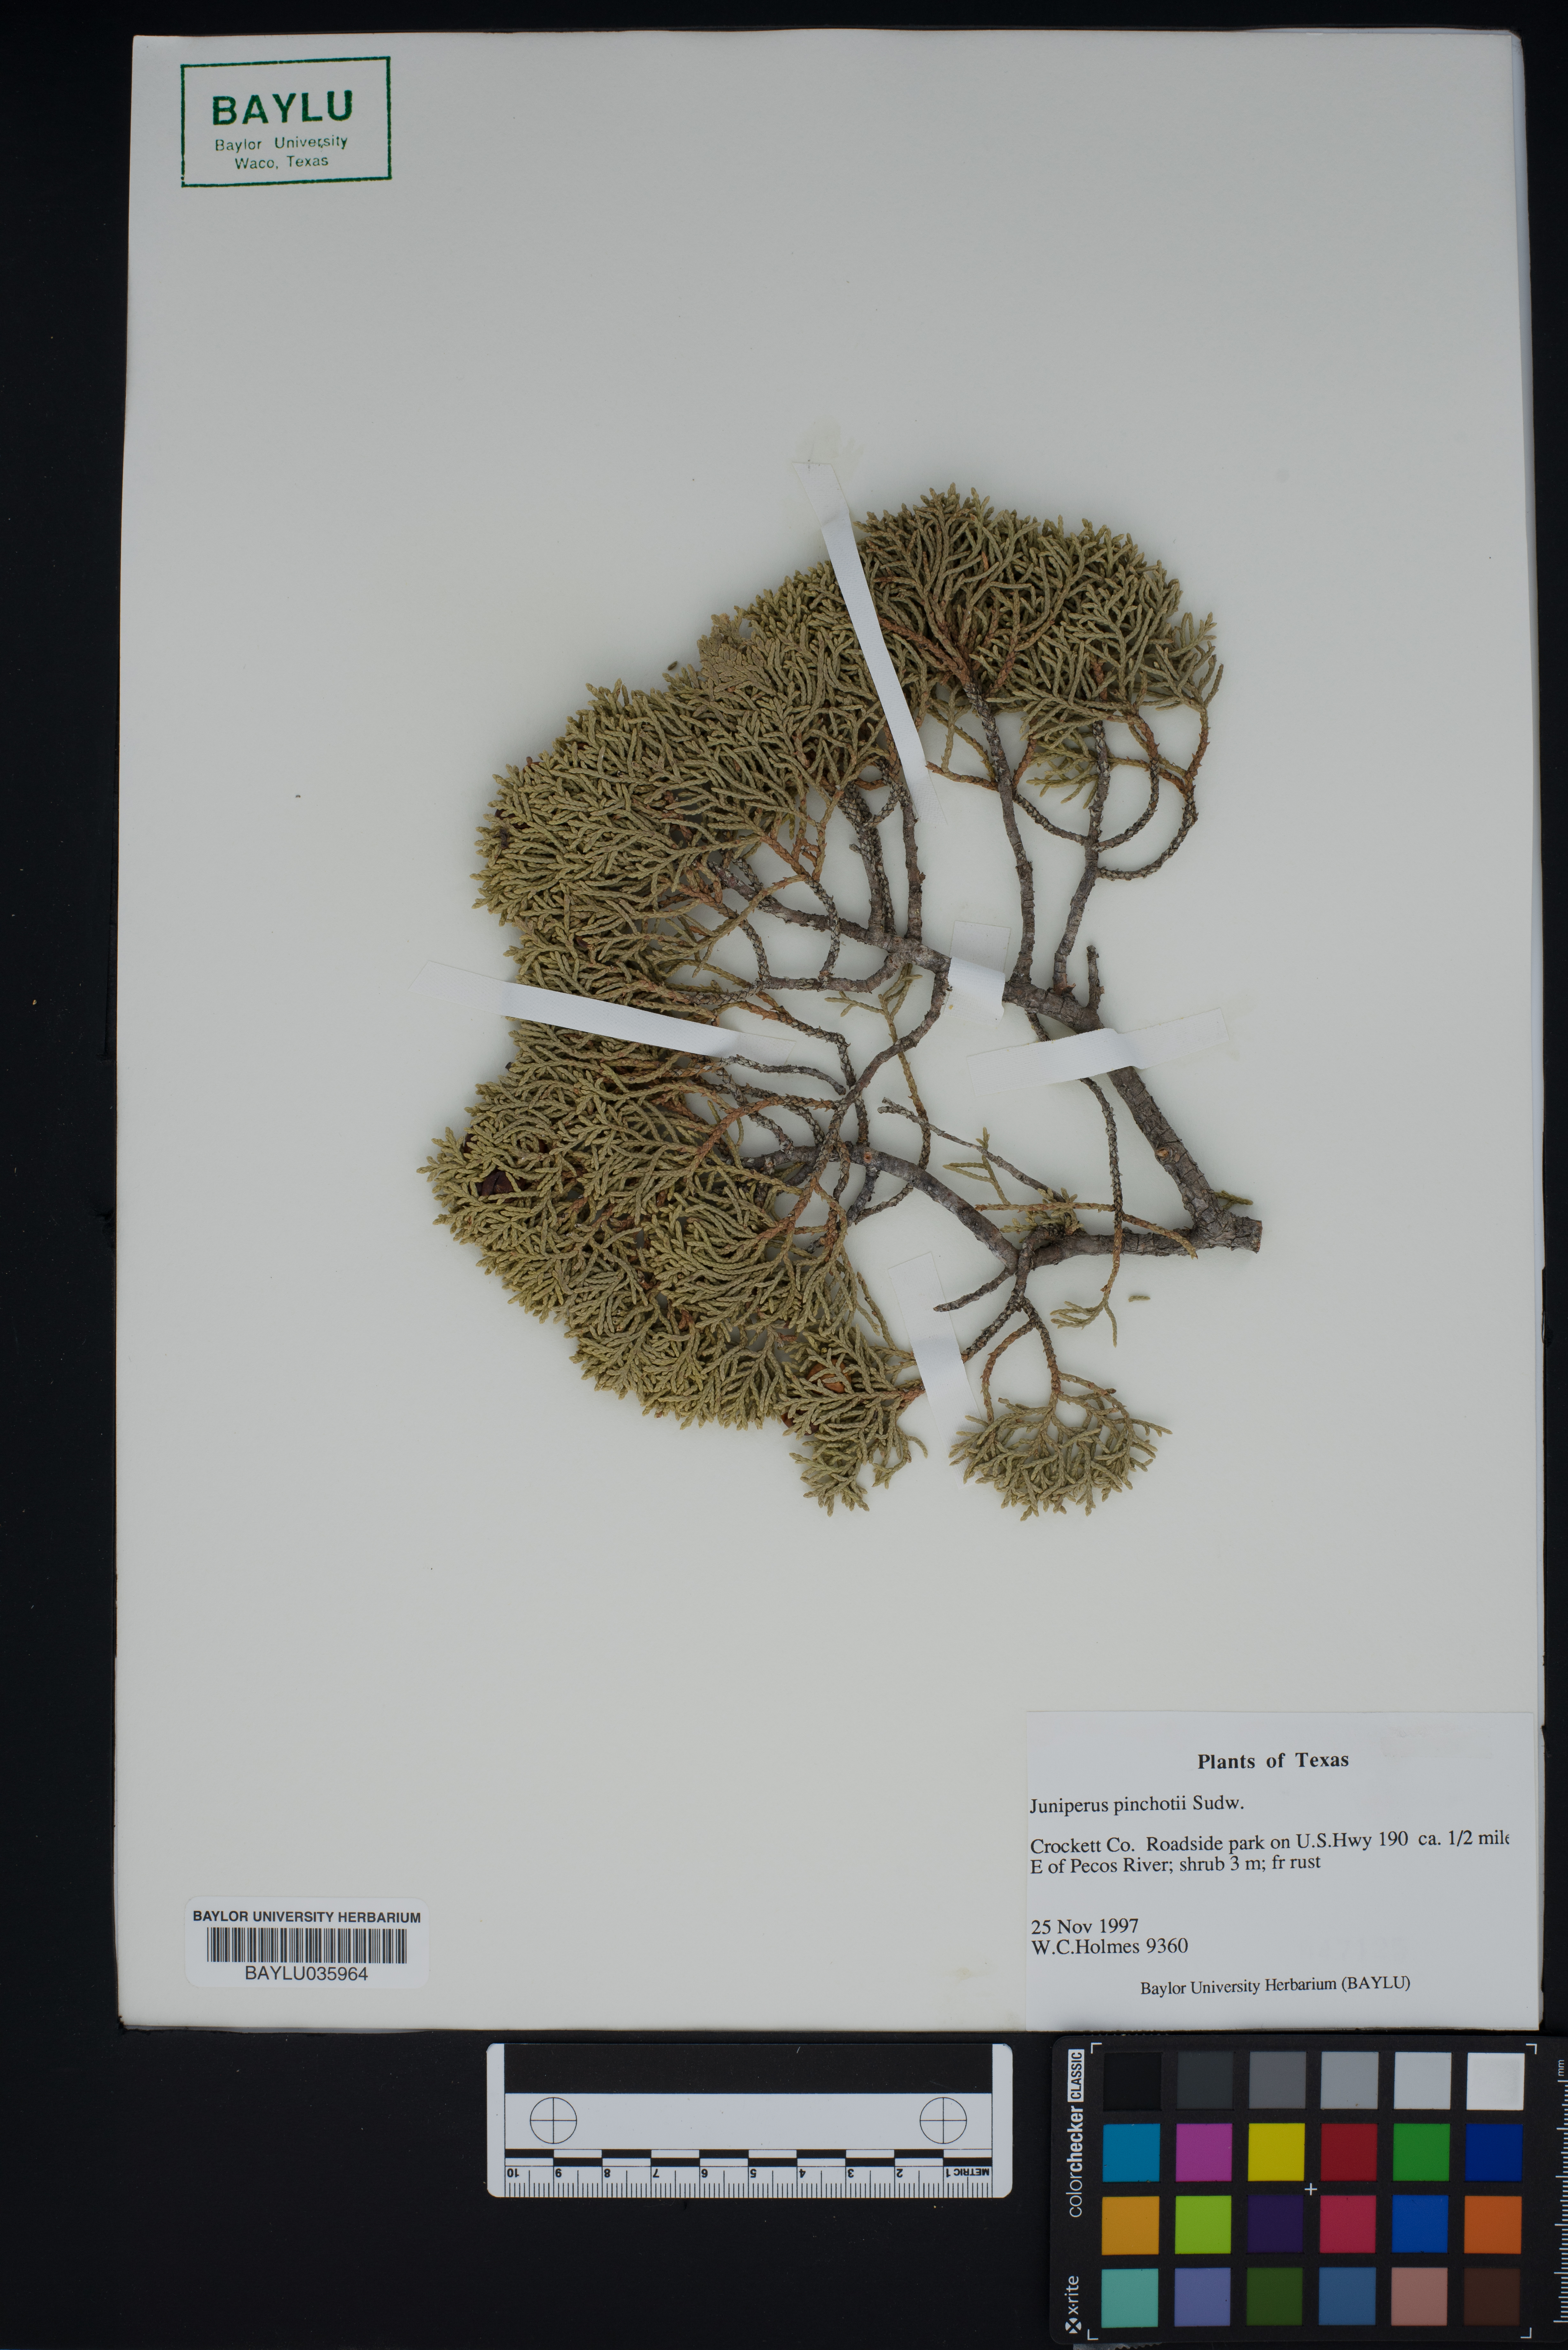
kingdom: Plantae
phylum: Tracheophyta
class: Pinopsida
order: Pinales
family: Cupressaceae
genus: Juniperus
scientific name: Juniperus pinchotii
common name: Pinchot juniper
